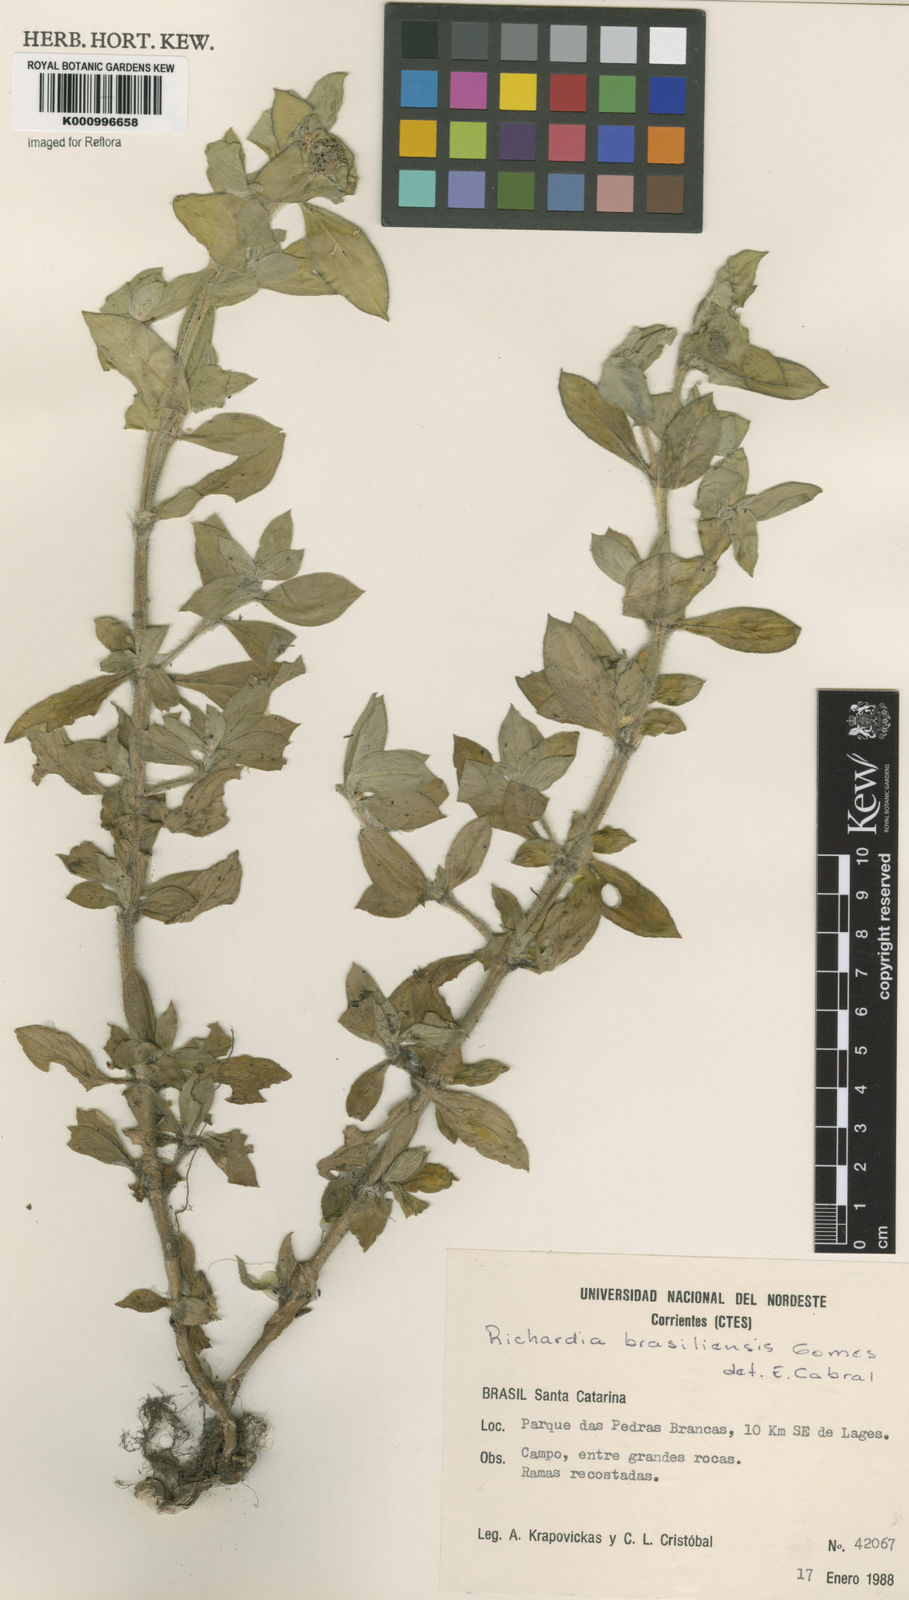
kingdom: Plantae
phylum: Tracheophyta
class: Magnoliopsida
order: Gentianales
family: Rubiaceae
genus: Richardia
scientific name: Richardia brasiliensis
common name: Tropical mexican clover
